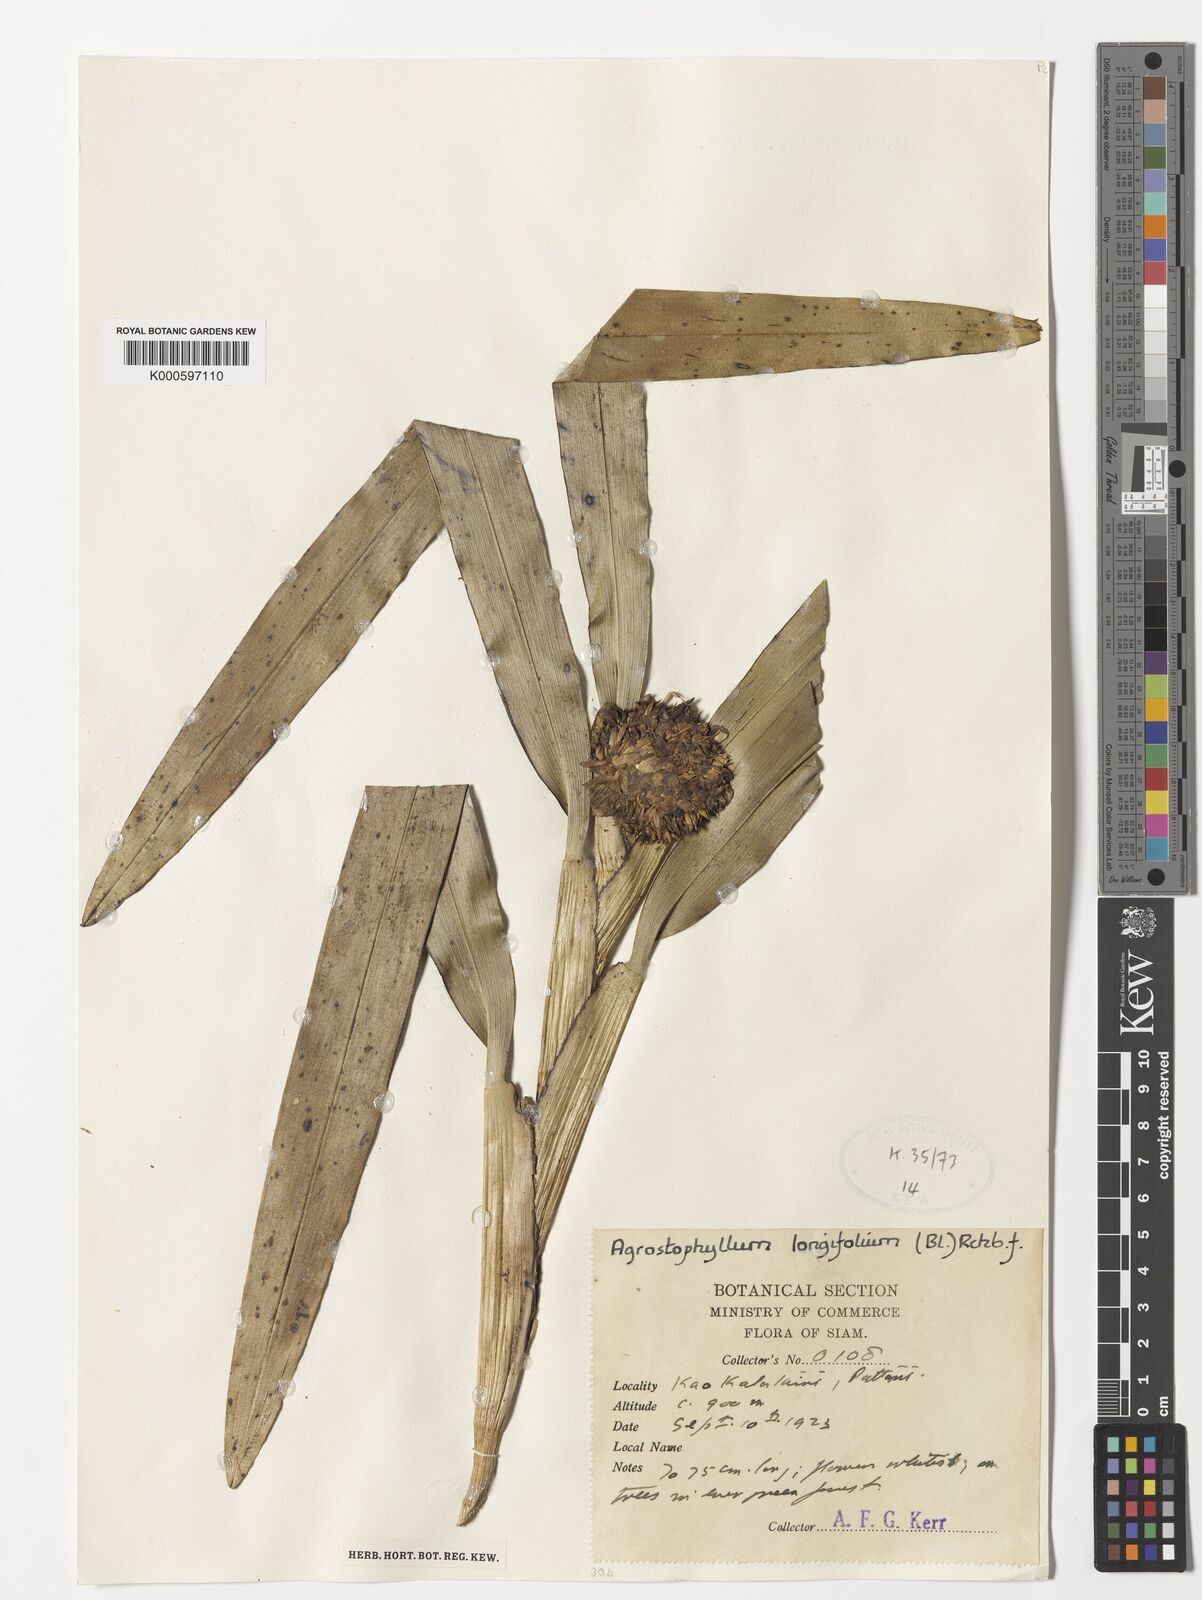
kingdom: Plantae
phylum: Tracheophyta
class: Liliopsida
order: Asparagales
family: Orchidaceae
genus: Agrostophyllum
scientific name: Agrostophyllum longifolium
